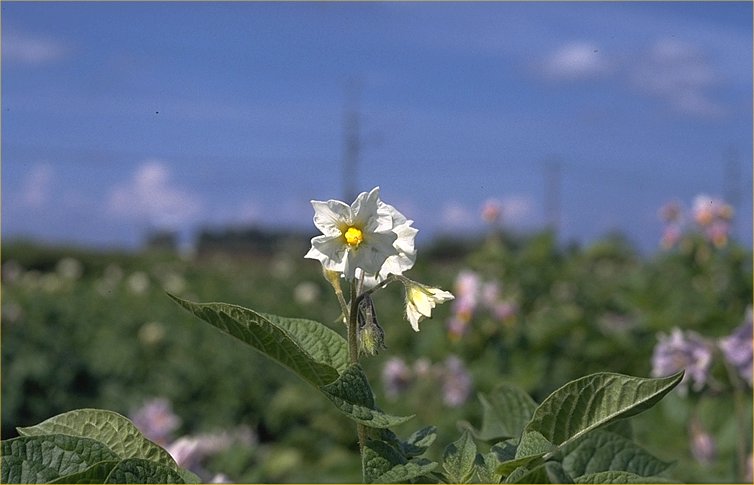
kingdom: Plantae
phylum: Tracheophyta
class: Magnoliopsida
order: Solanales
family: Solanaceae
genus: Solanum
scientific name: Solanum tuberosum
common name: Potato
